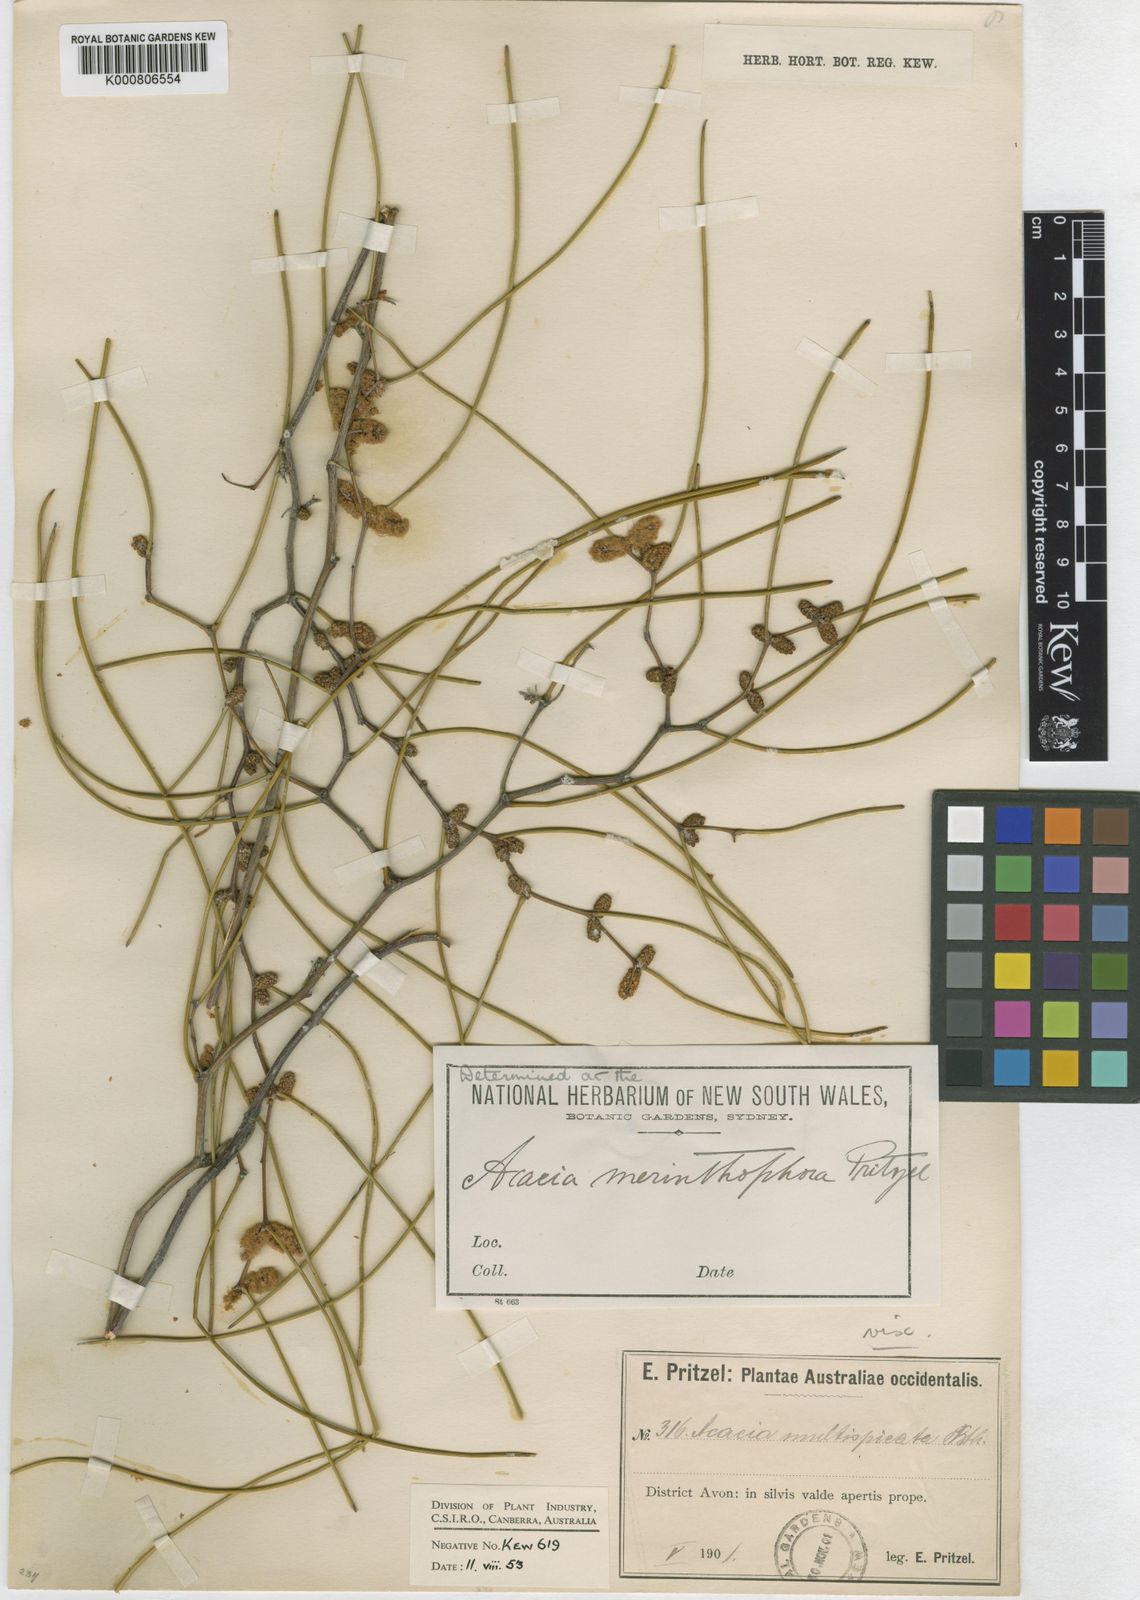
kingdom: Plantae
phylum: Tracheophyta
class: Magnoliopsida
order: Fabales
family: Fabaceae
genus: Acacia
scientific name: Acacia merinthophora
